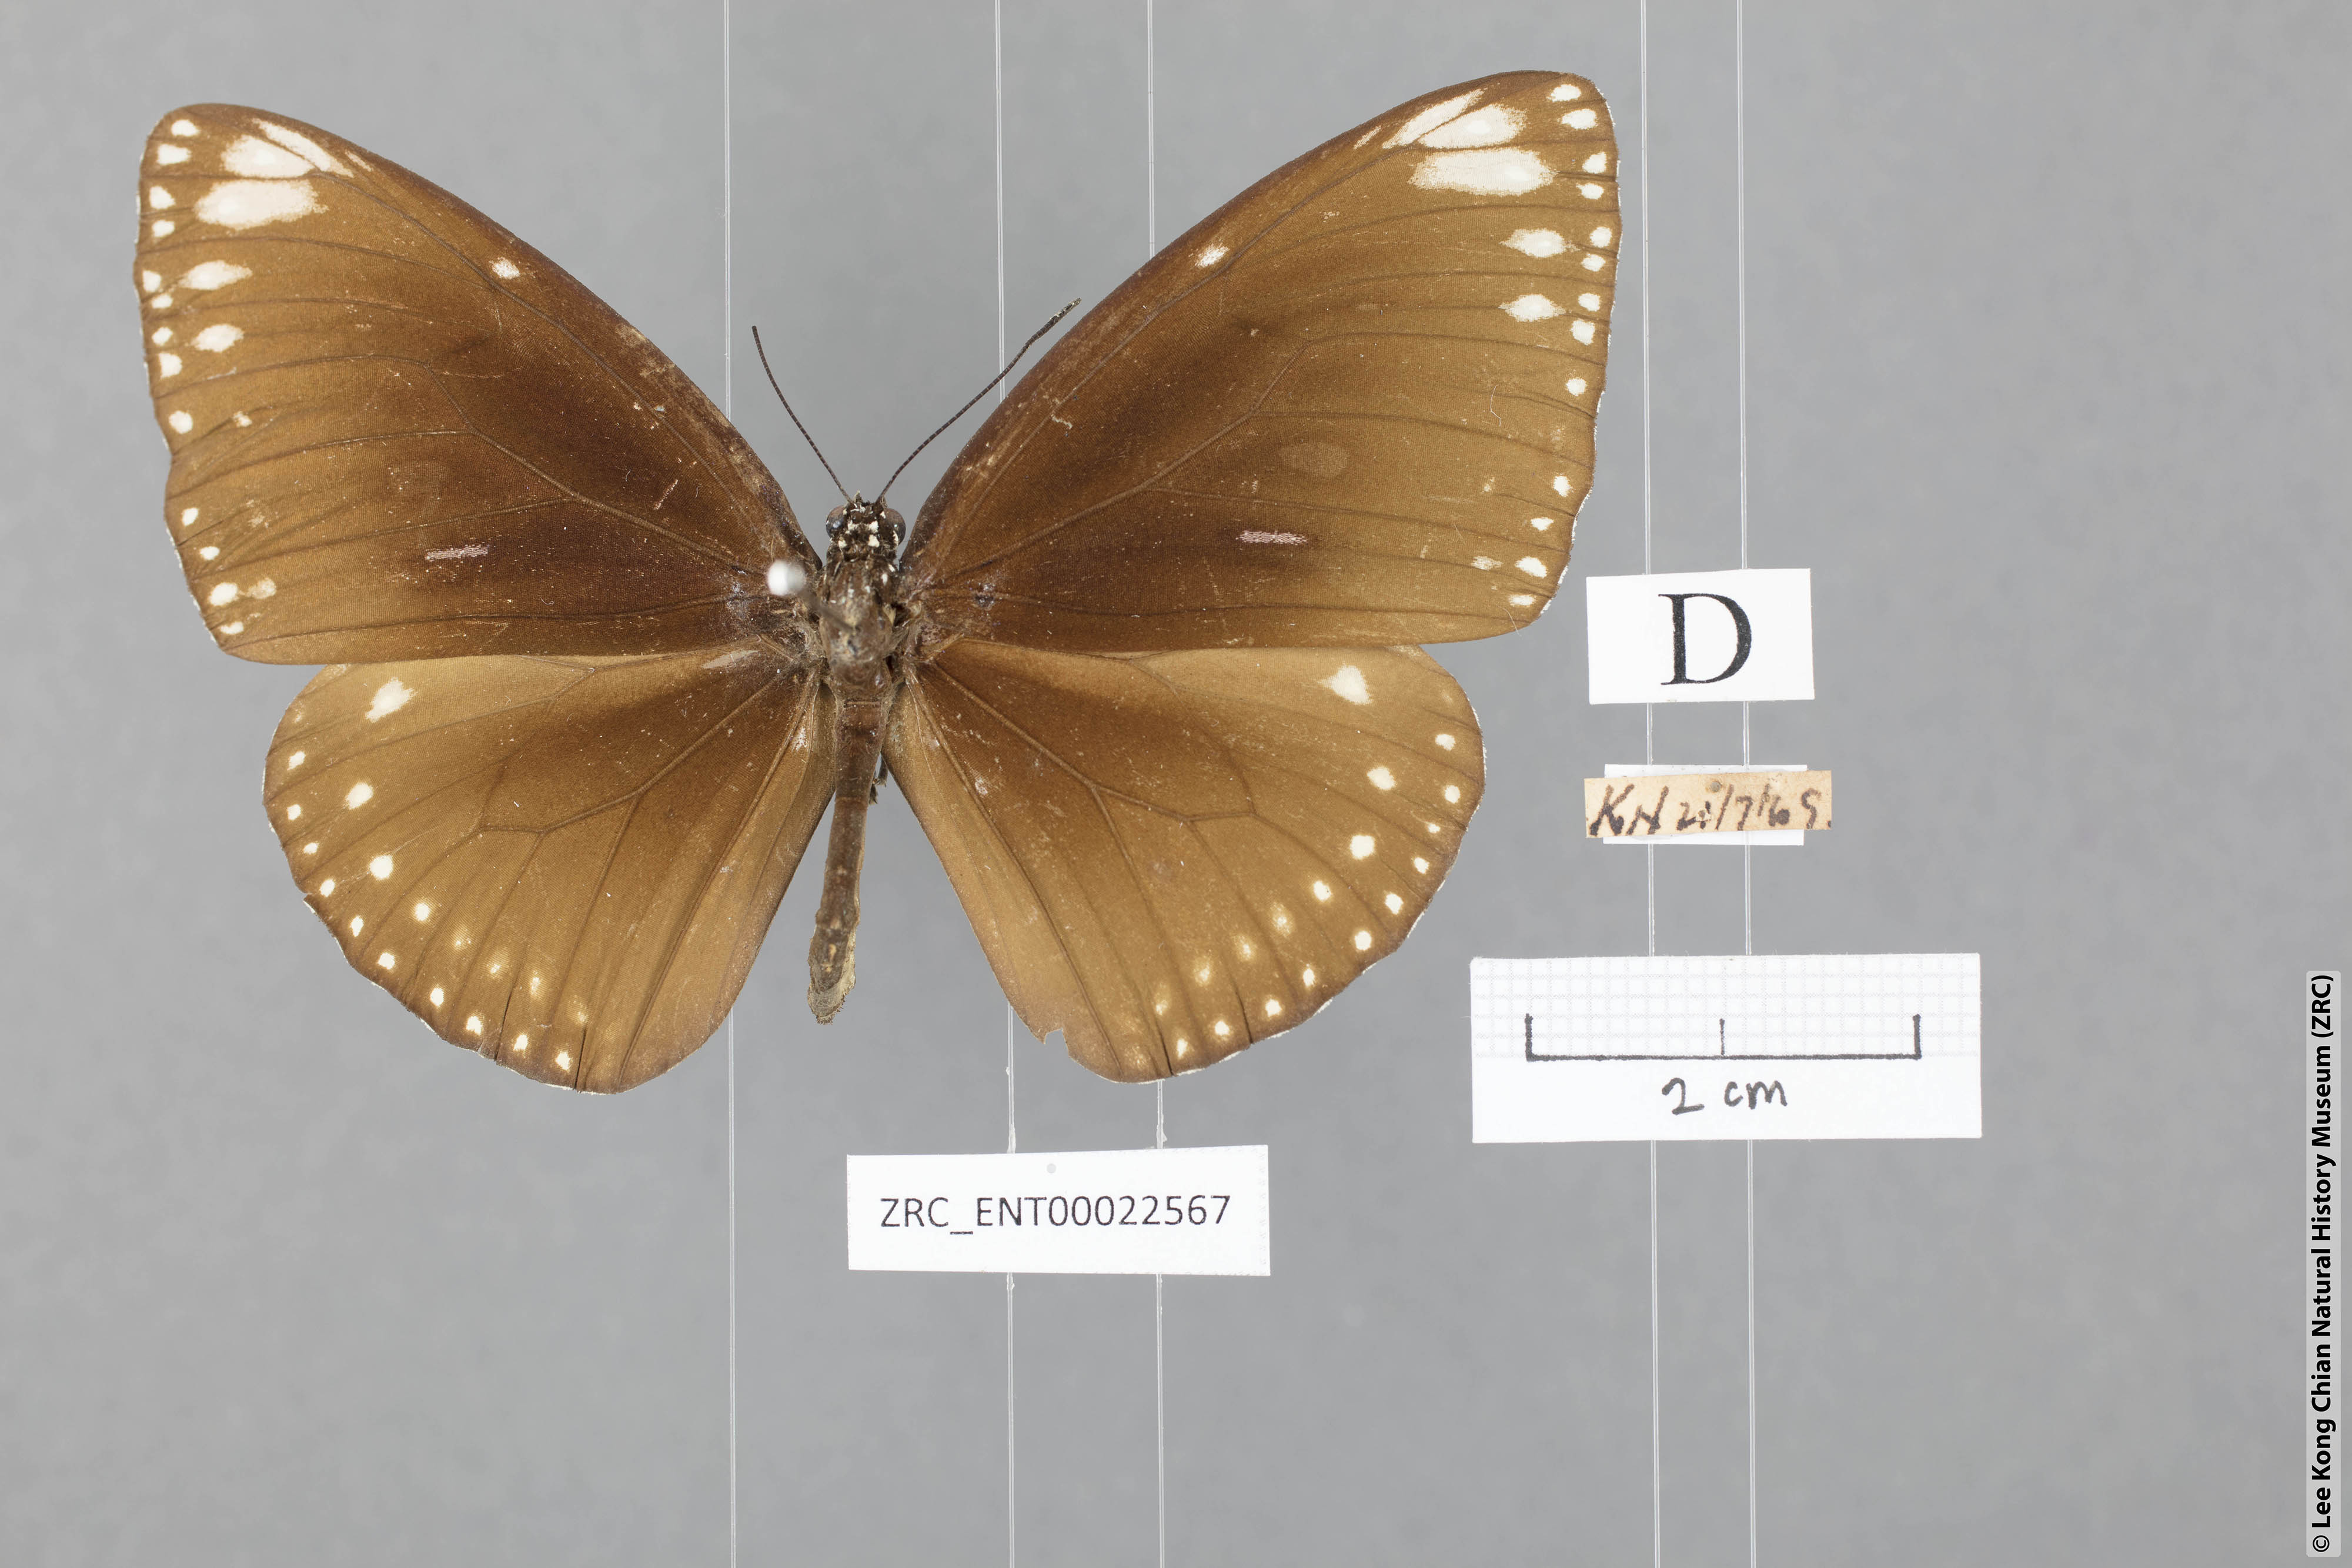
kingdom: Animalia
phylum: Arthropoda
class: Insecta
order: Lepidoptera
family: Nymphalidae
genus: Euploea
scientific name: Euploea klugii
